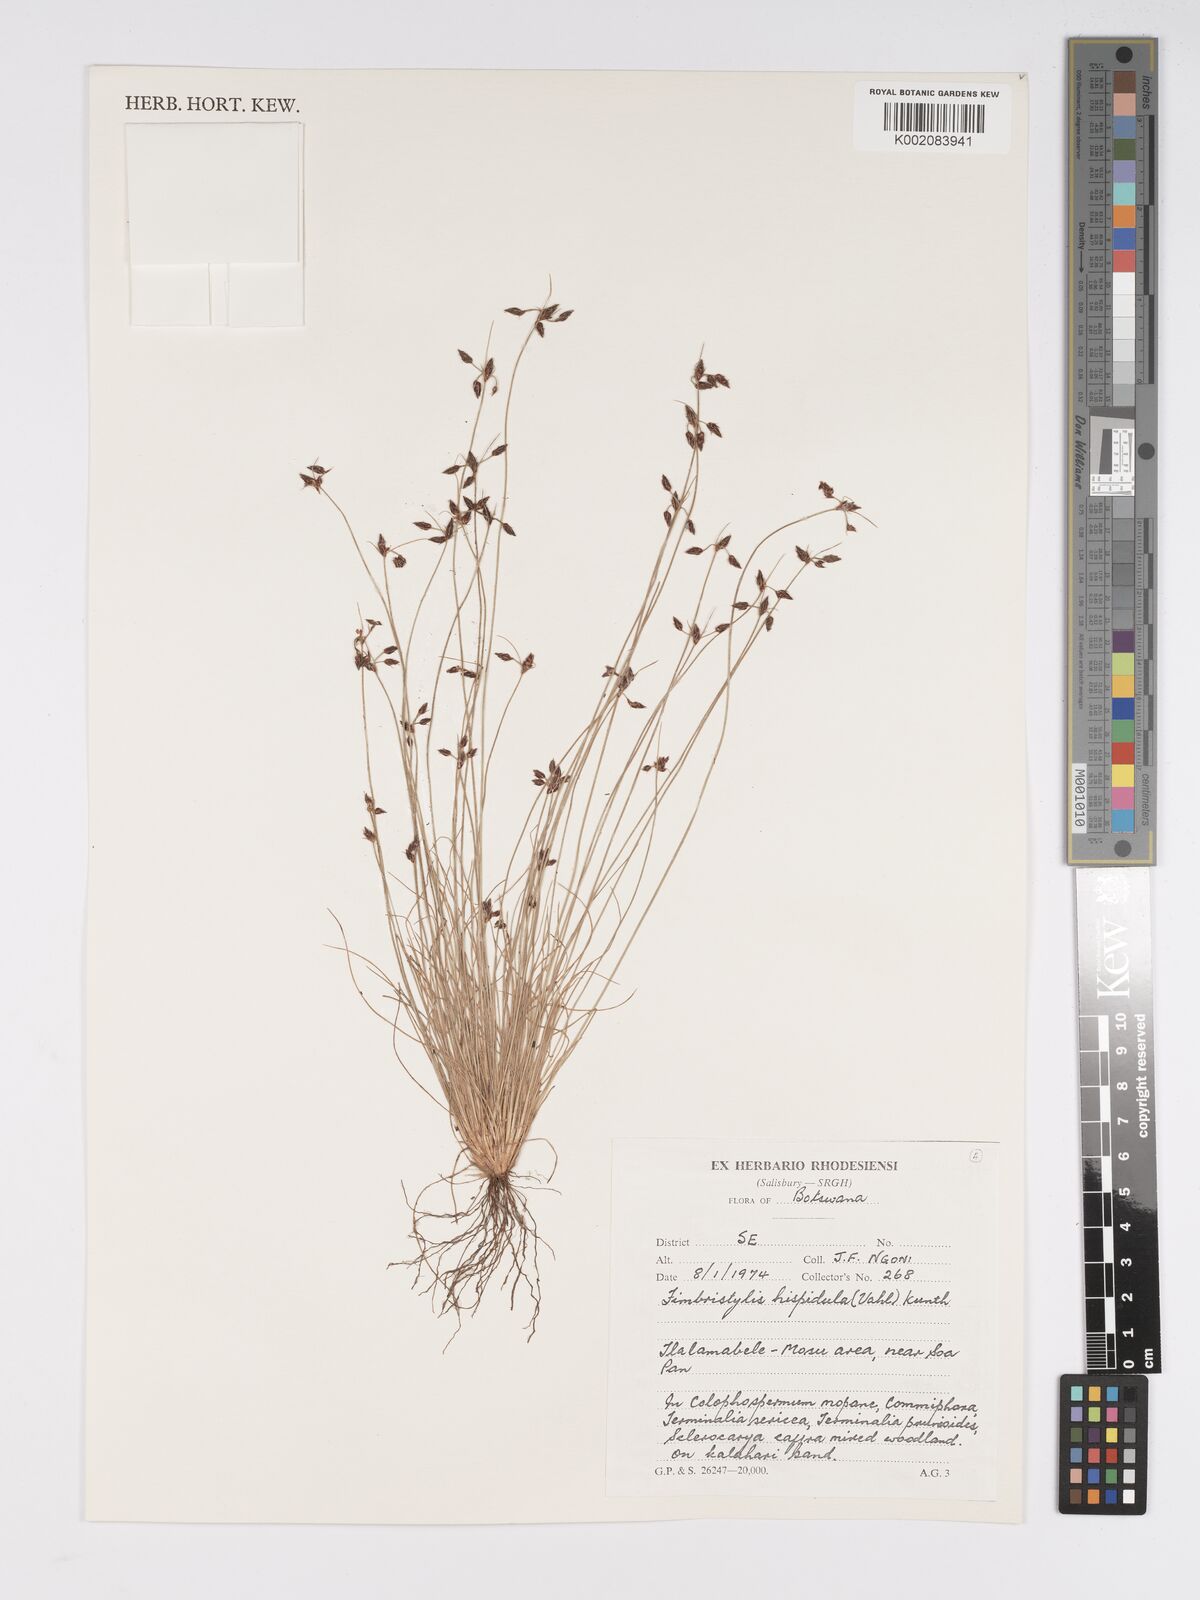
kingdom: Plantae
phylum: Tracheophyta
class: Liliopsida
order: Poales
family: Cyperaceae
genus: Bulbostylis
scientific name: Bulbostylis hispidula
